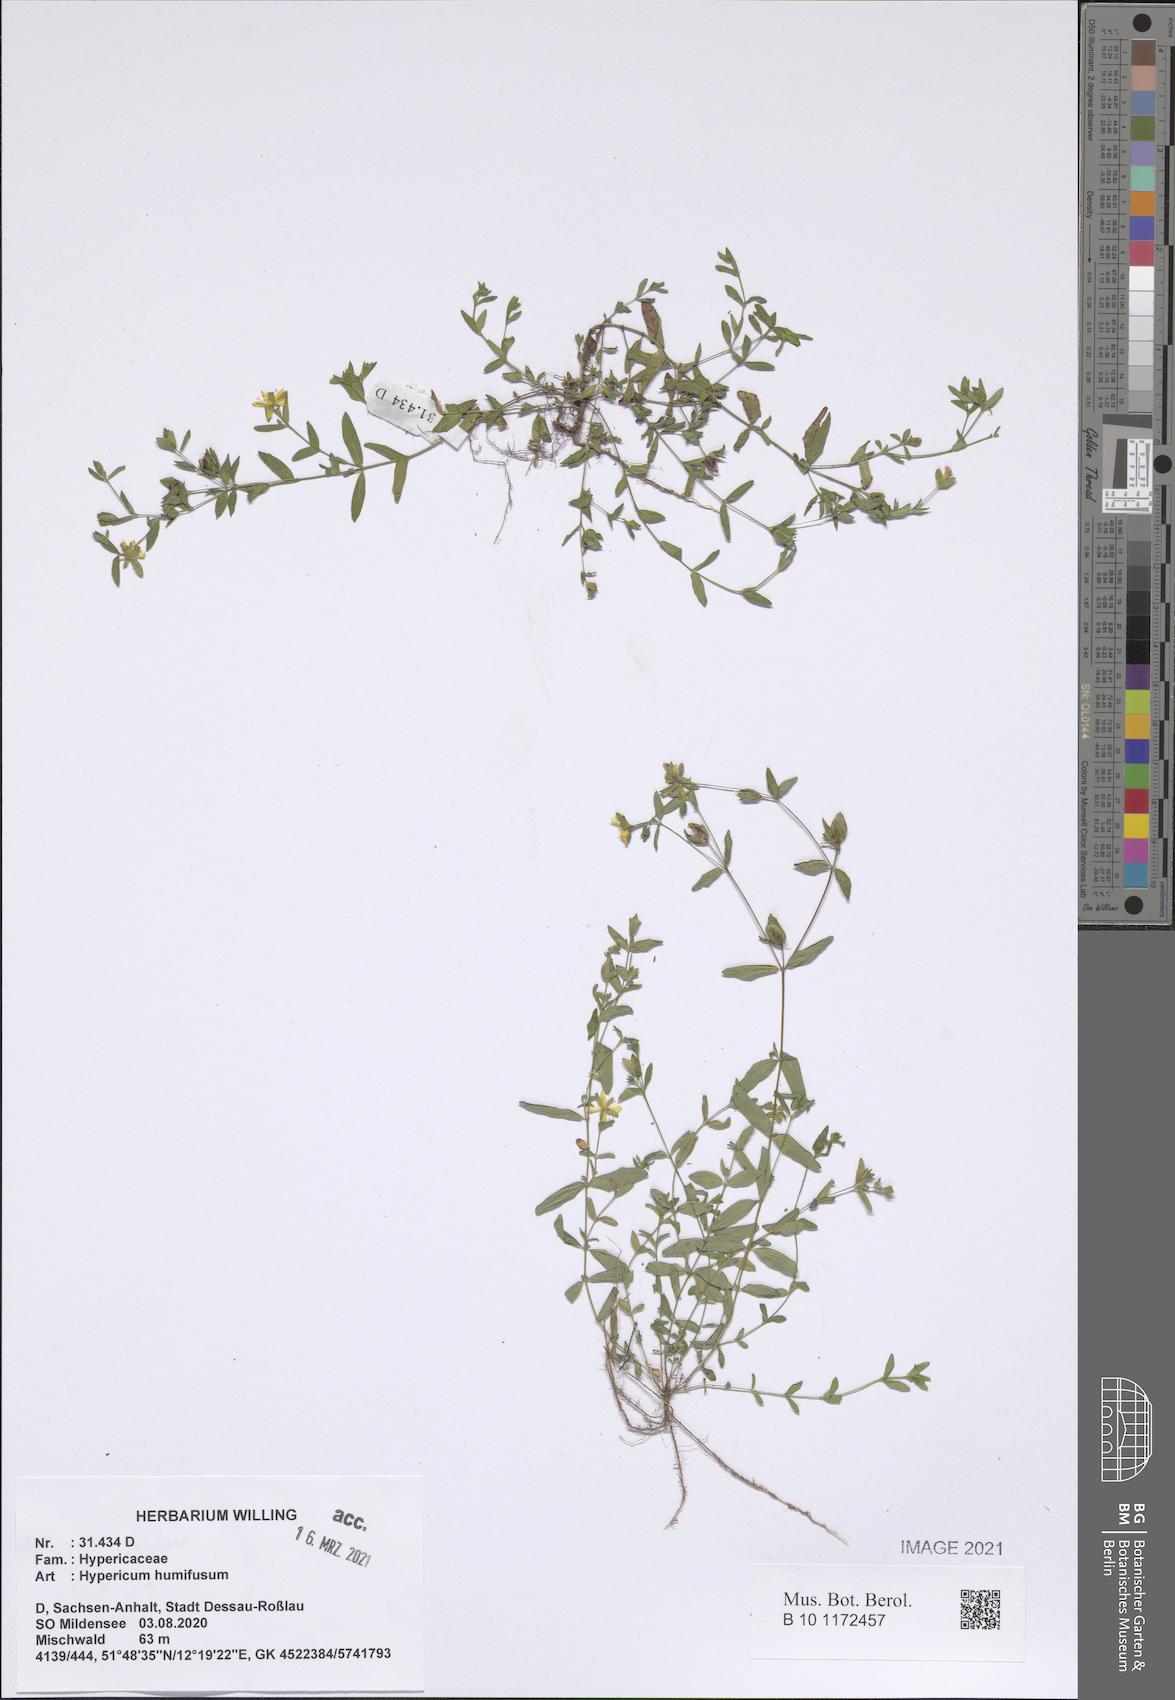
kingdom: Plantae
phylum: Tracheophyta
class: Magnoliopsida
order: Malpighiales
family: Hypericaceae
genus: Hypericum
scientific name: Hypericum humifusum
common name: Trailing st. john's-wort
